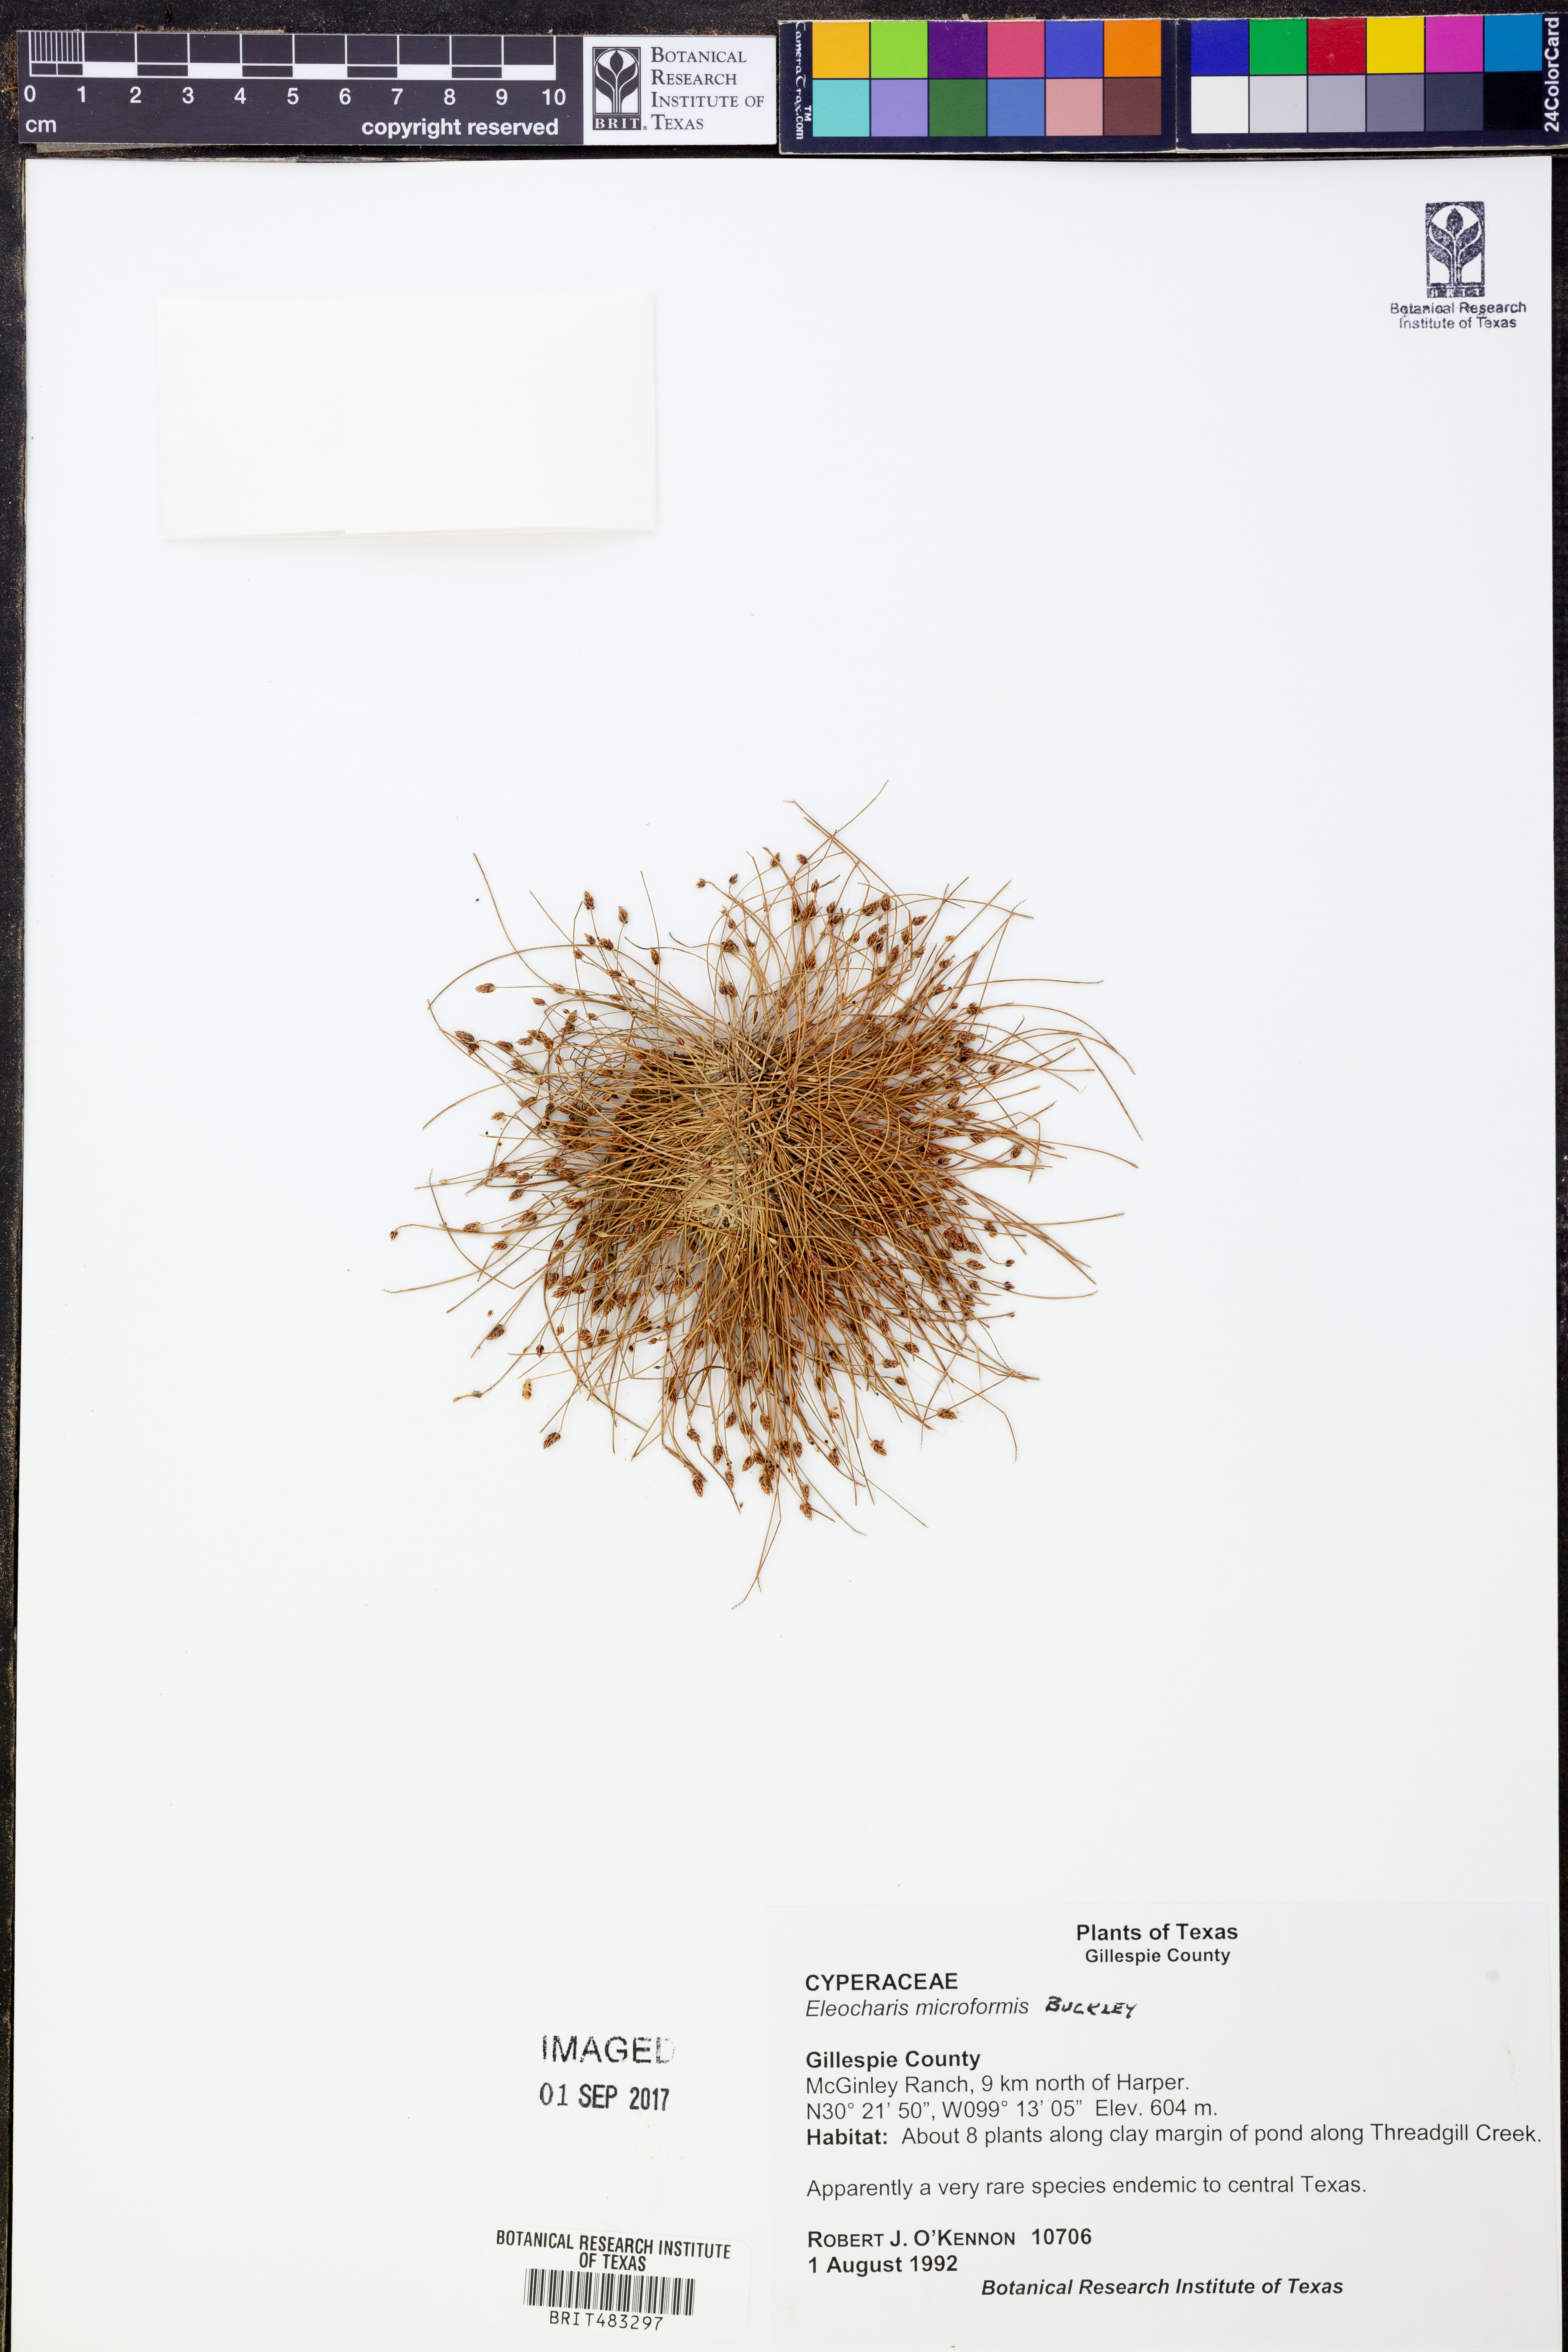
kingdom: Plantae
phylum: Tracheophyta
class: Liliopsida
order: Poales
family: Cyperaceae
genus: Eleocharis
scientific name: Eleocharis microformis
